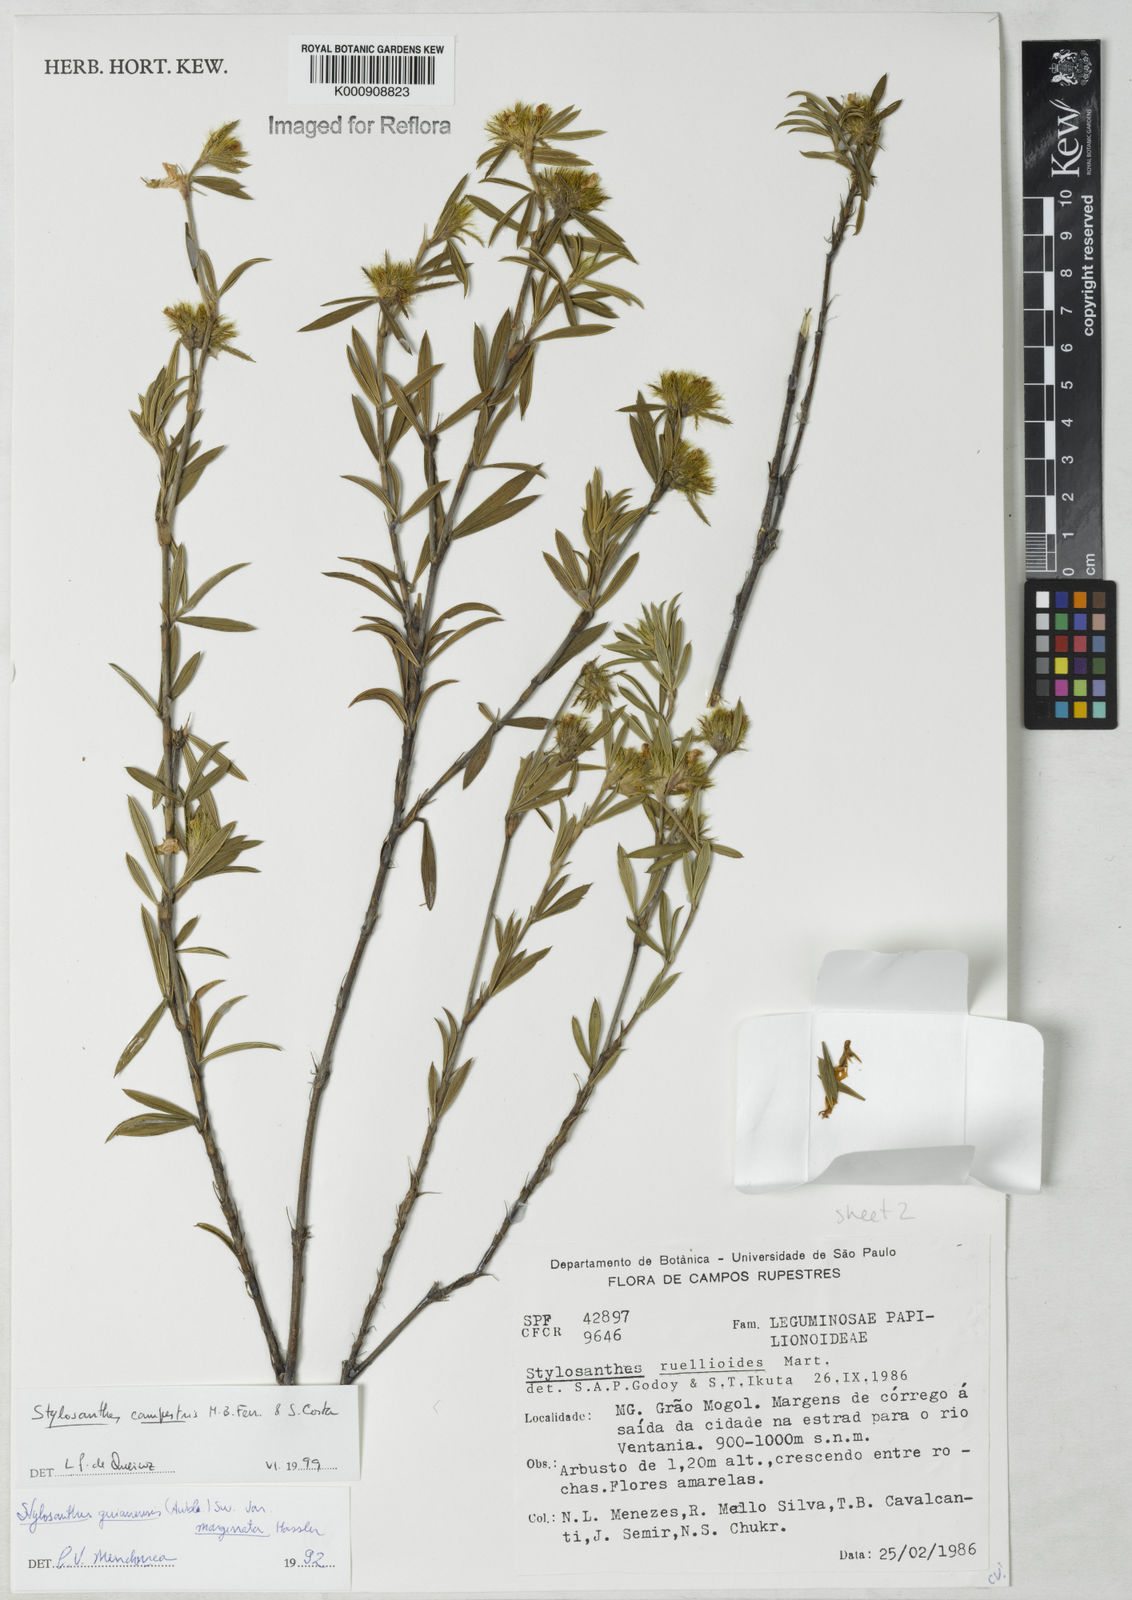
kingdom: Plantae
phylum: Tracheophyta
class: Magnoliopsida
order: Fabales
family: Fabaceae
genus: Stylosanthes
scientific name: Stylosanthes campestris
